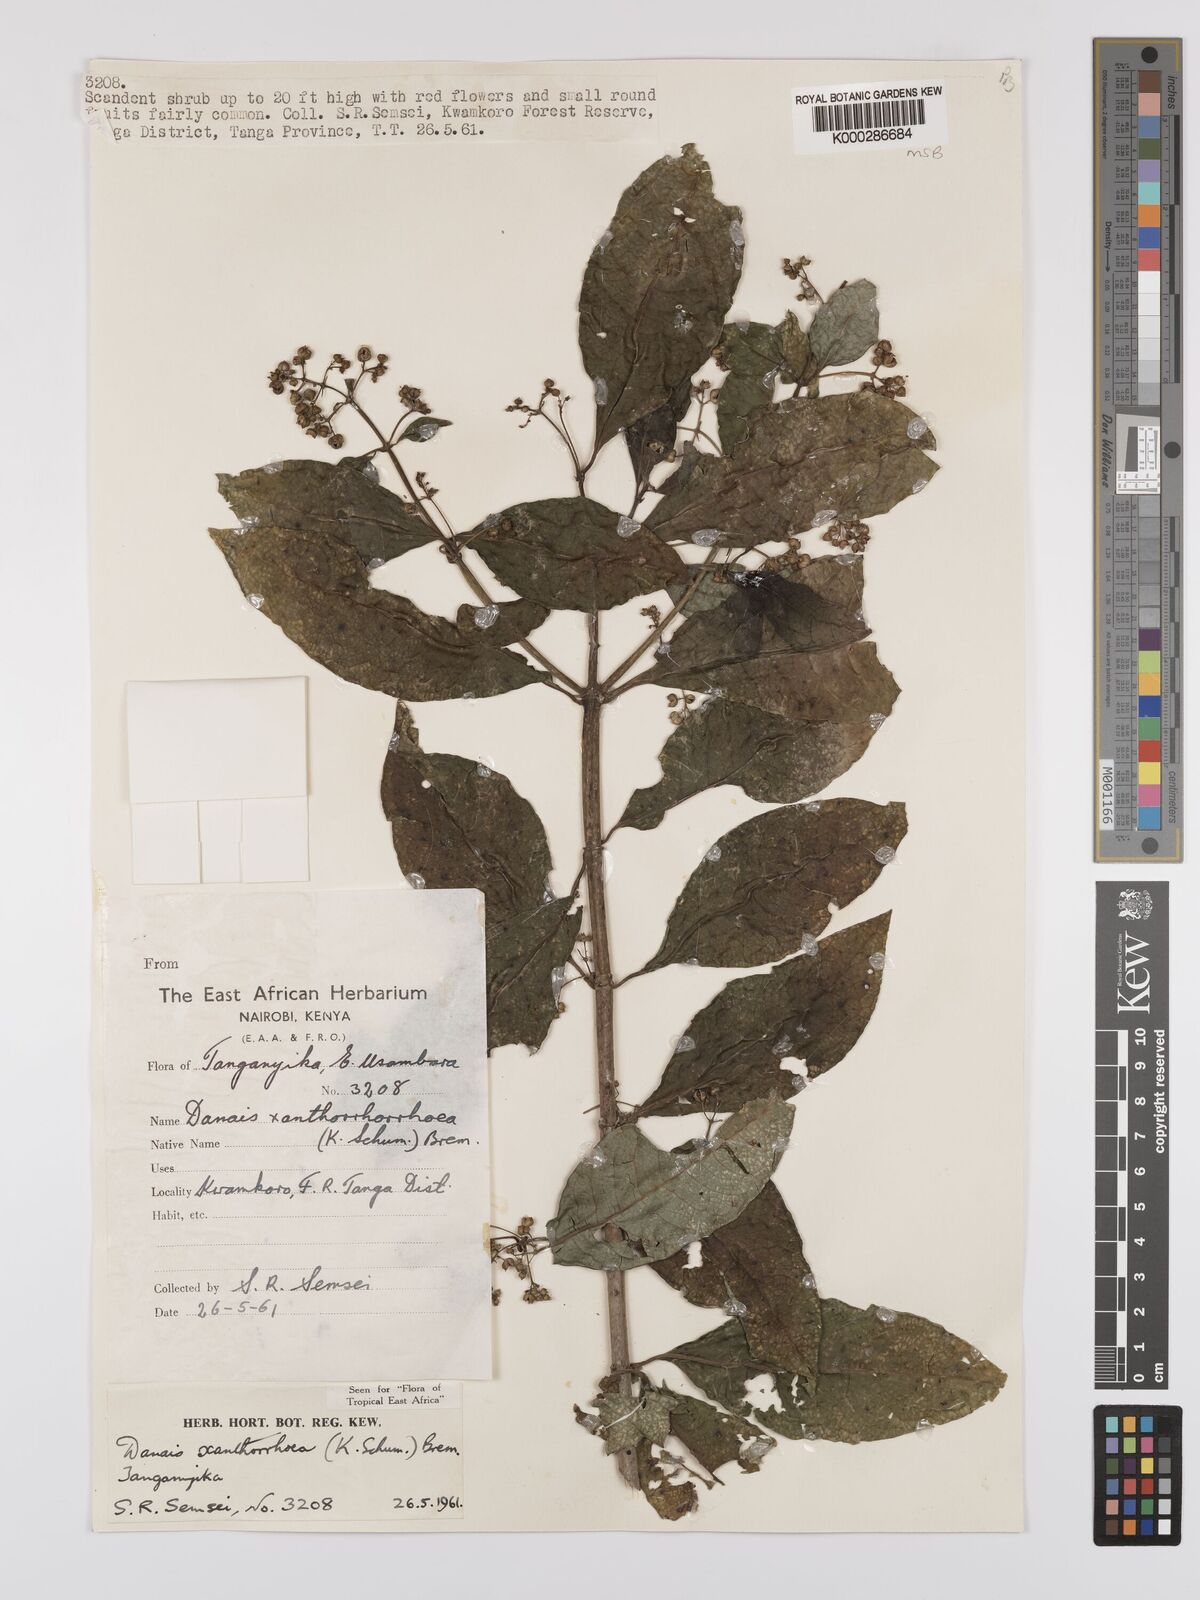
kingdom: Plantae
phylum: Tracheophyta
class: Magnoliopsida
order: Gentianales
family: Rubiaceae
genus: Danais
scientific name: Danais xanthorrhoea
